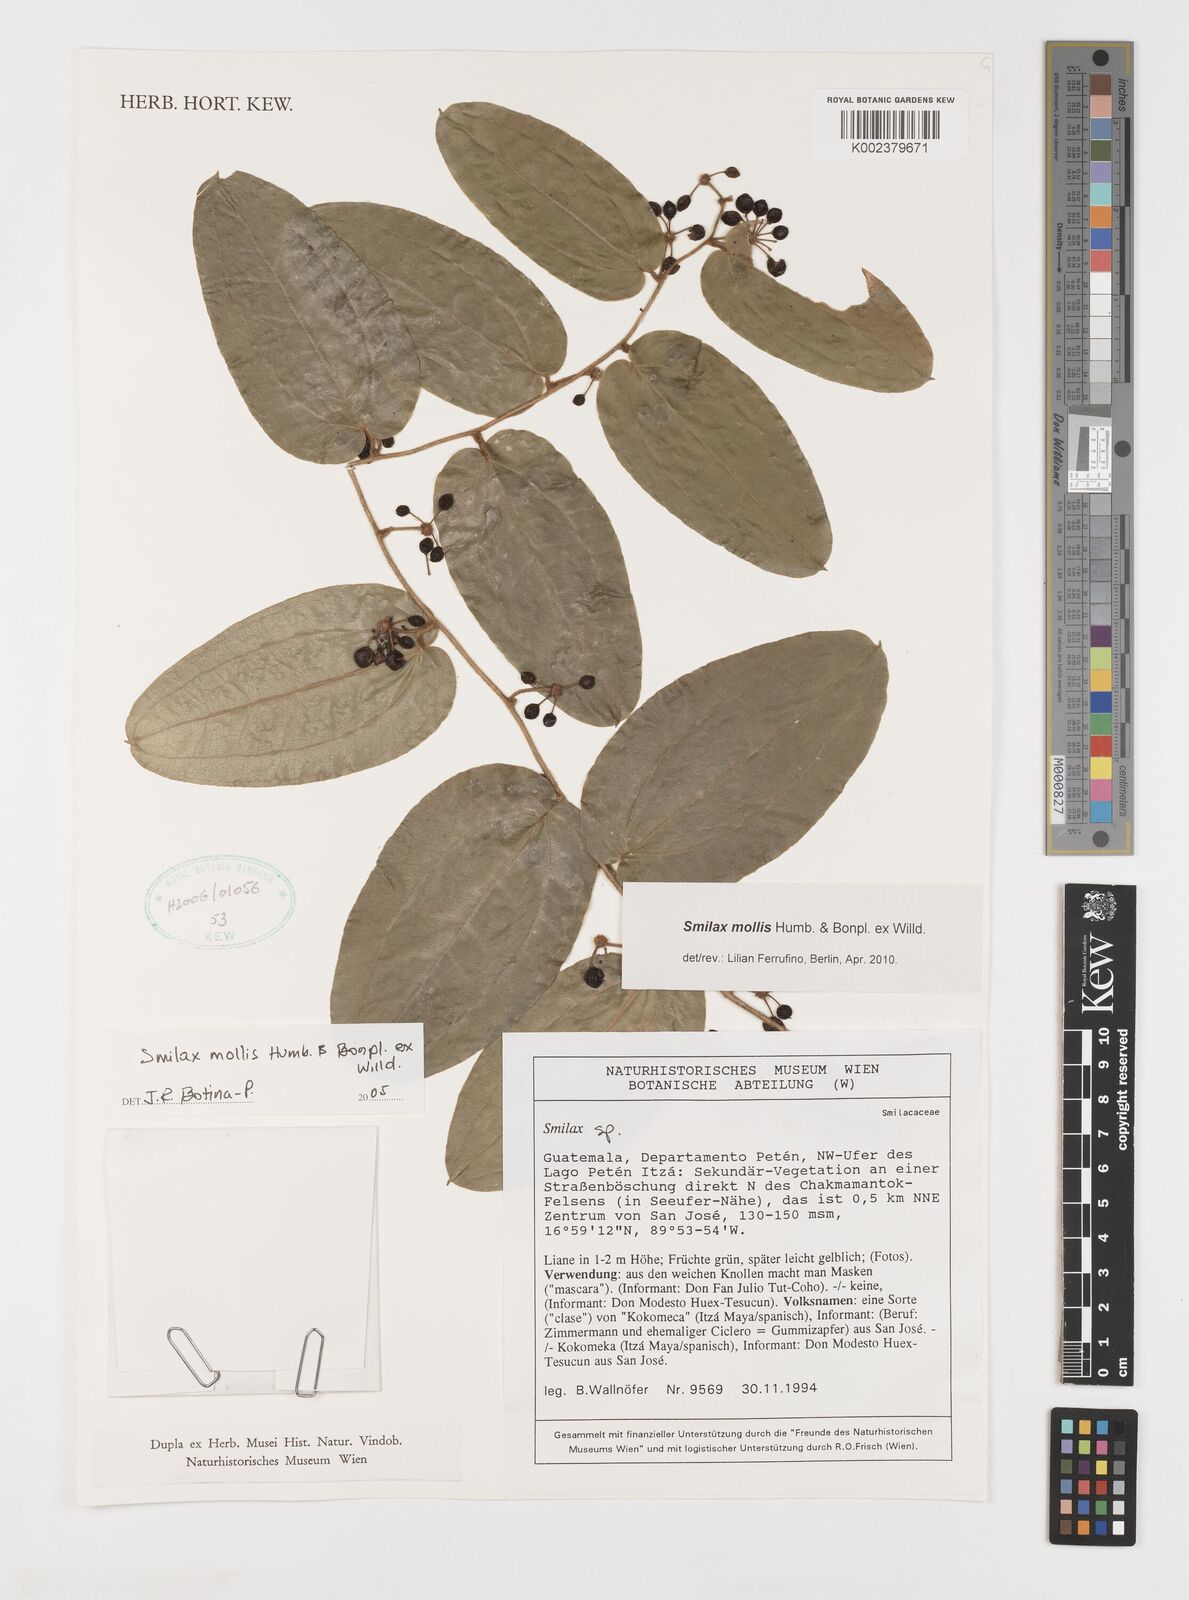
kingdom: Plantae
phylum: Tracheophyta
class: Liliopsida
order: Liliales
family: Smilacaceae
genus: Smilax
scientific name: Smilax mollis
